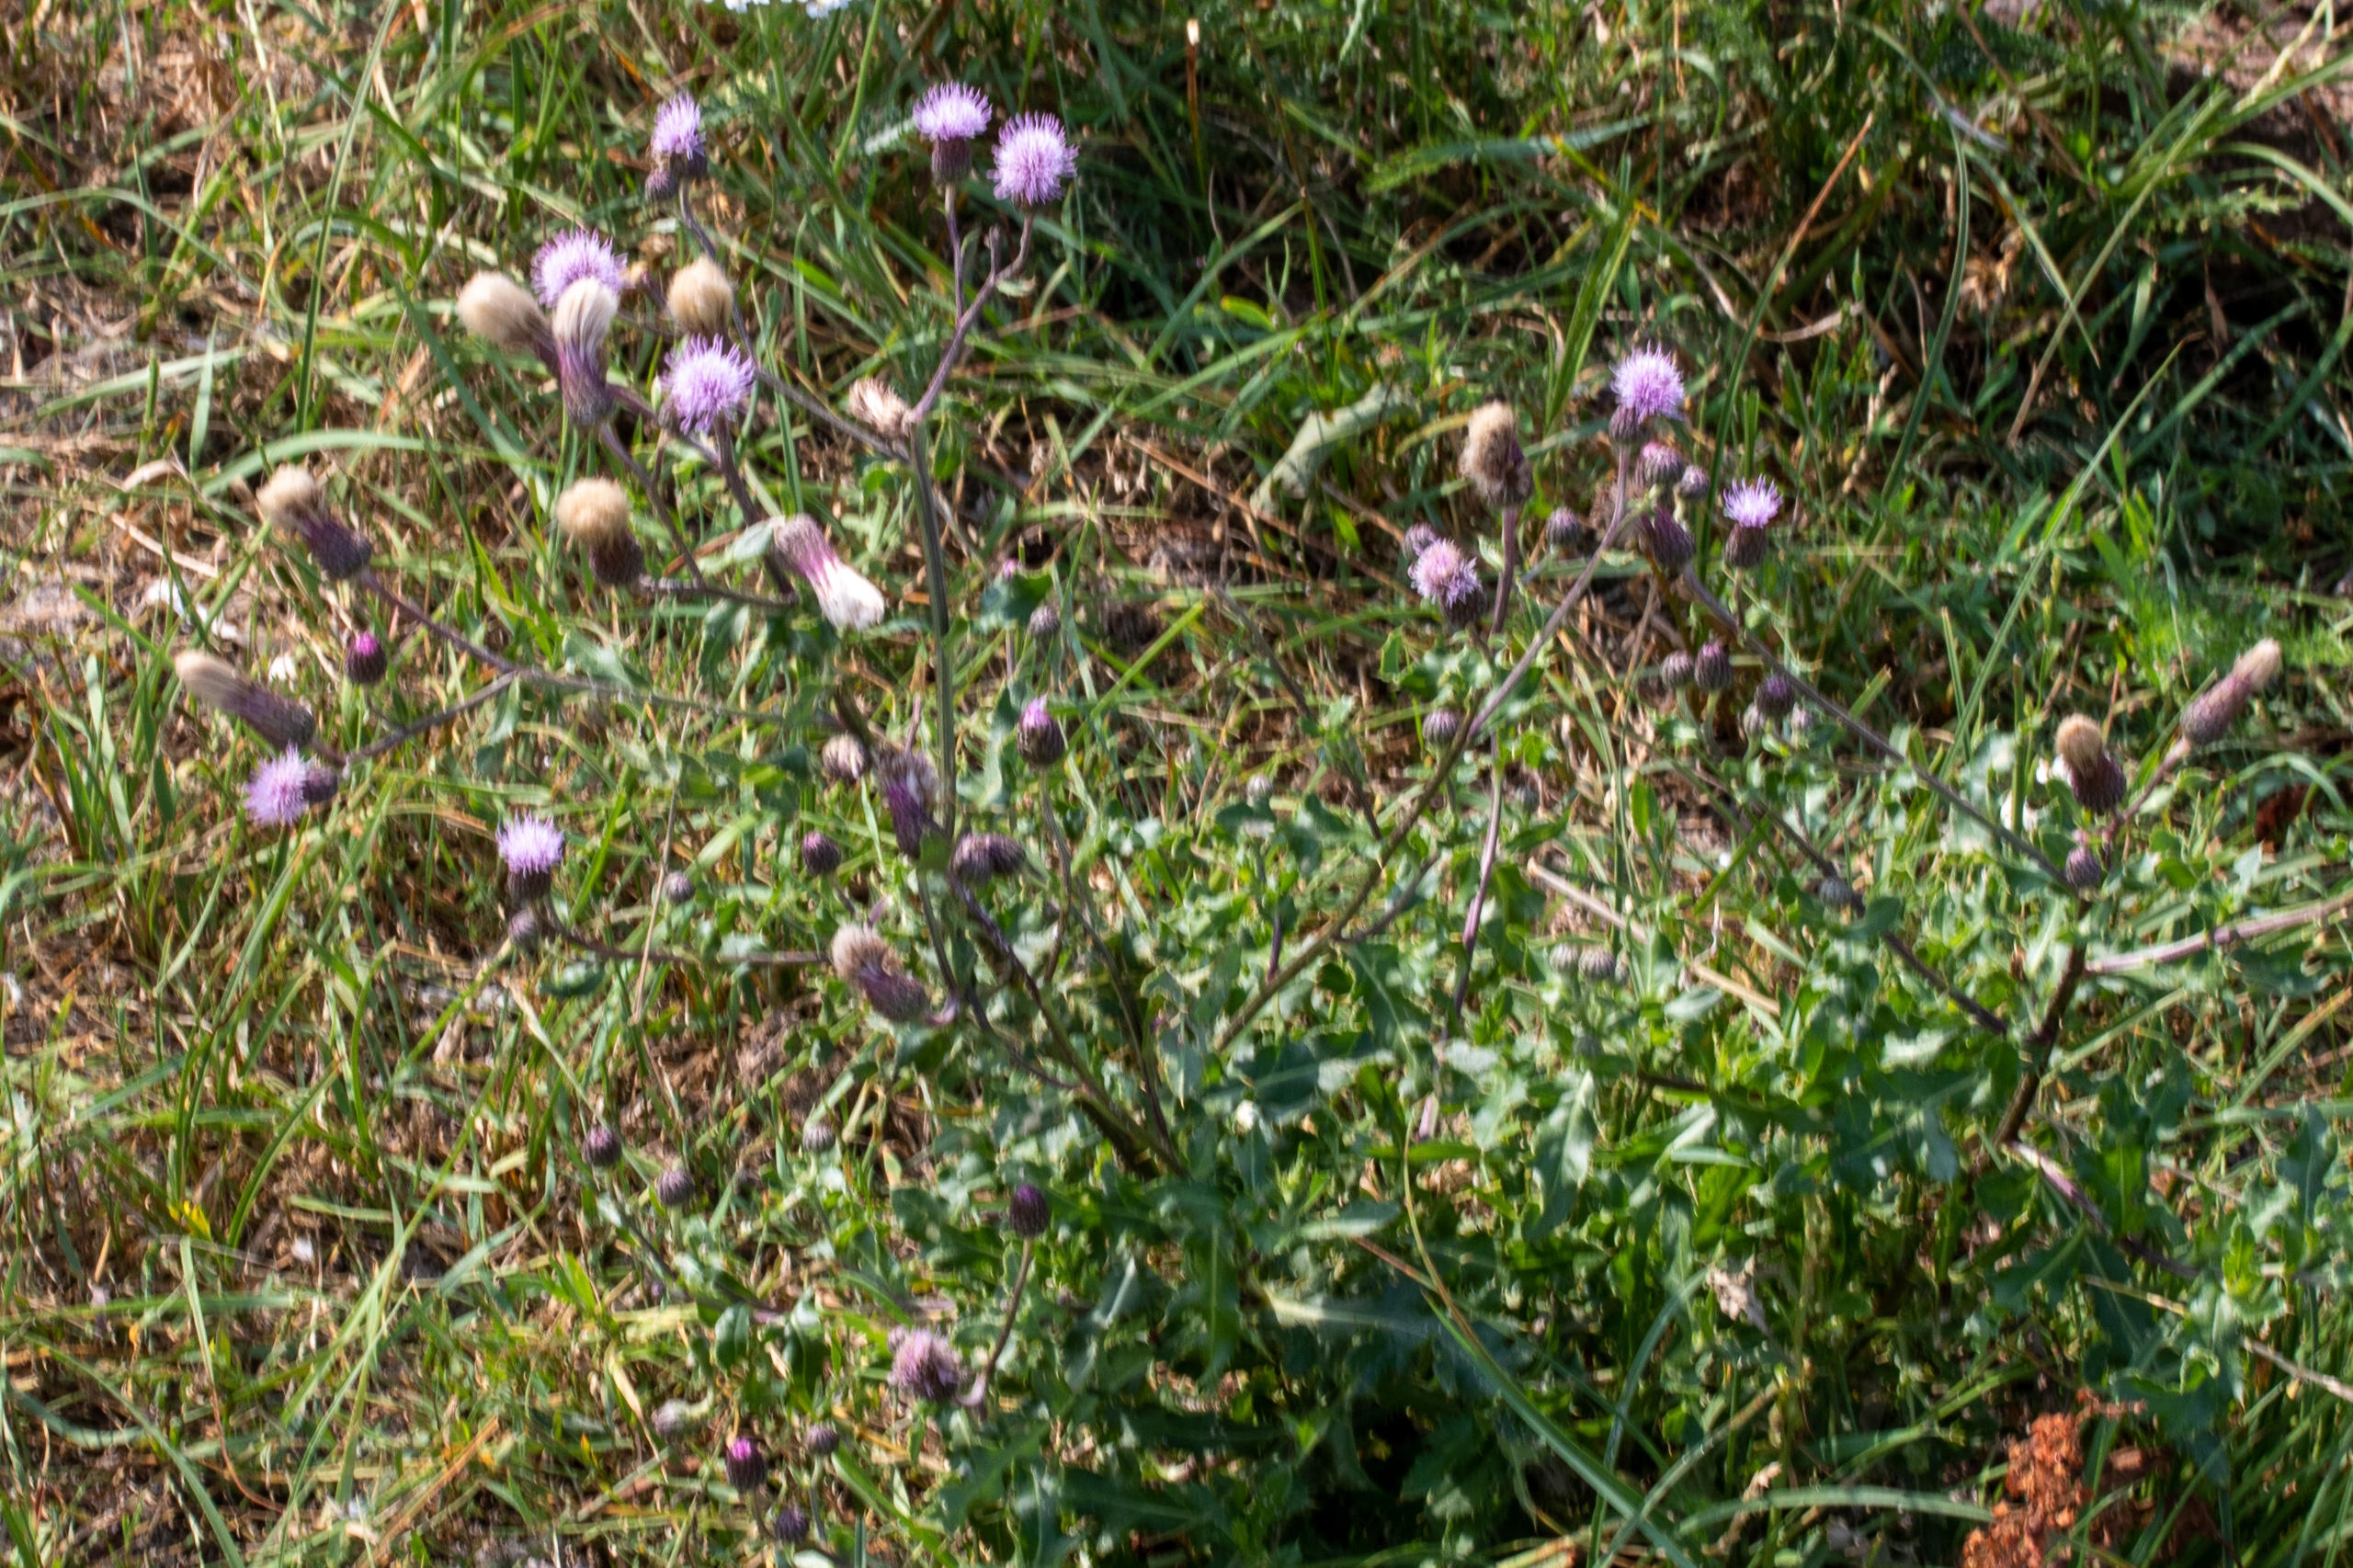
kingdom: Plantae
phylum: Tracheophyta
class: Magnoliopsida
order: Asterales
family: Asteraceae
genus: Cirsium
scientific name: Cirsium arvense
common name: Ager-tidsel
